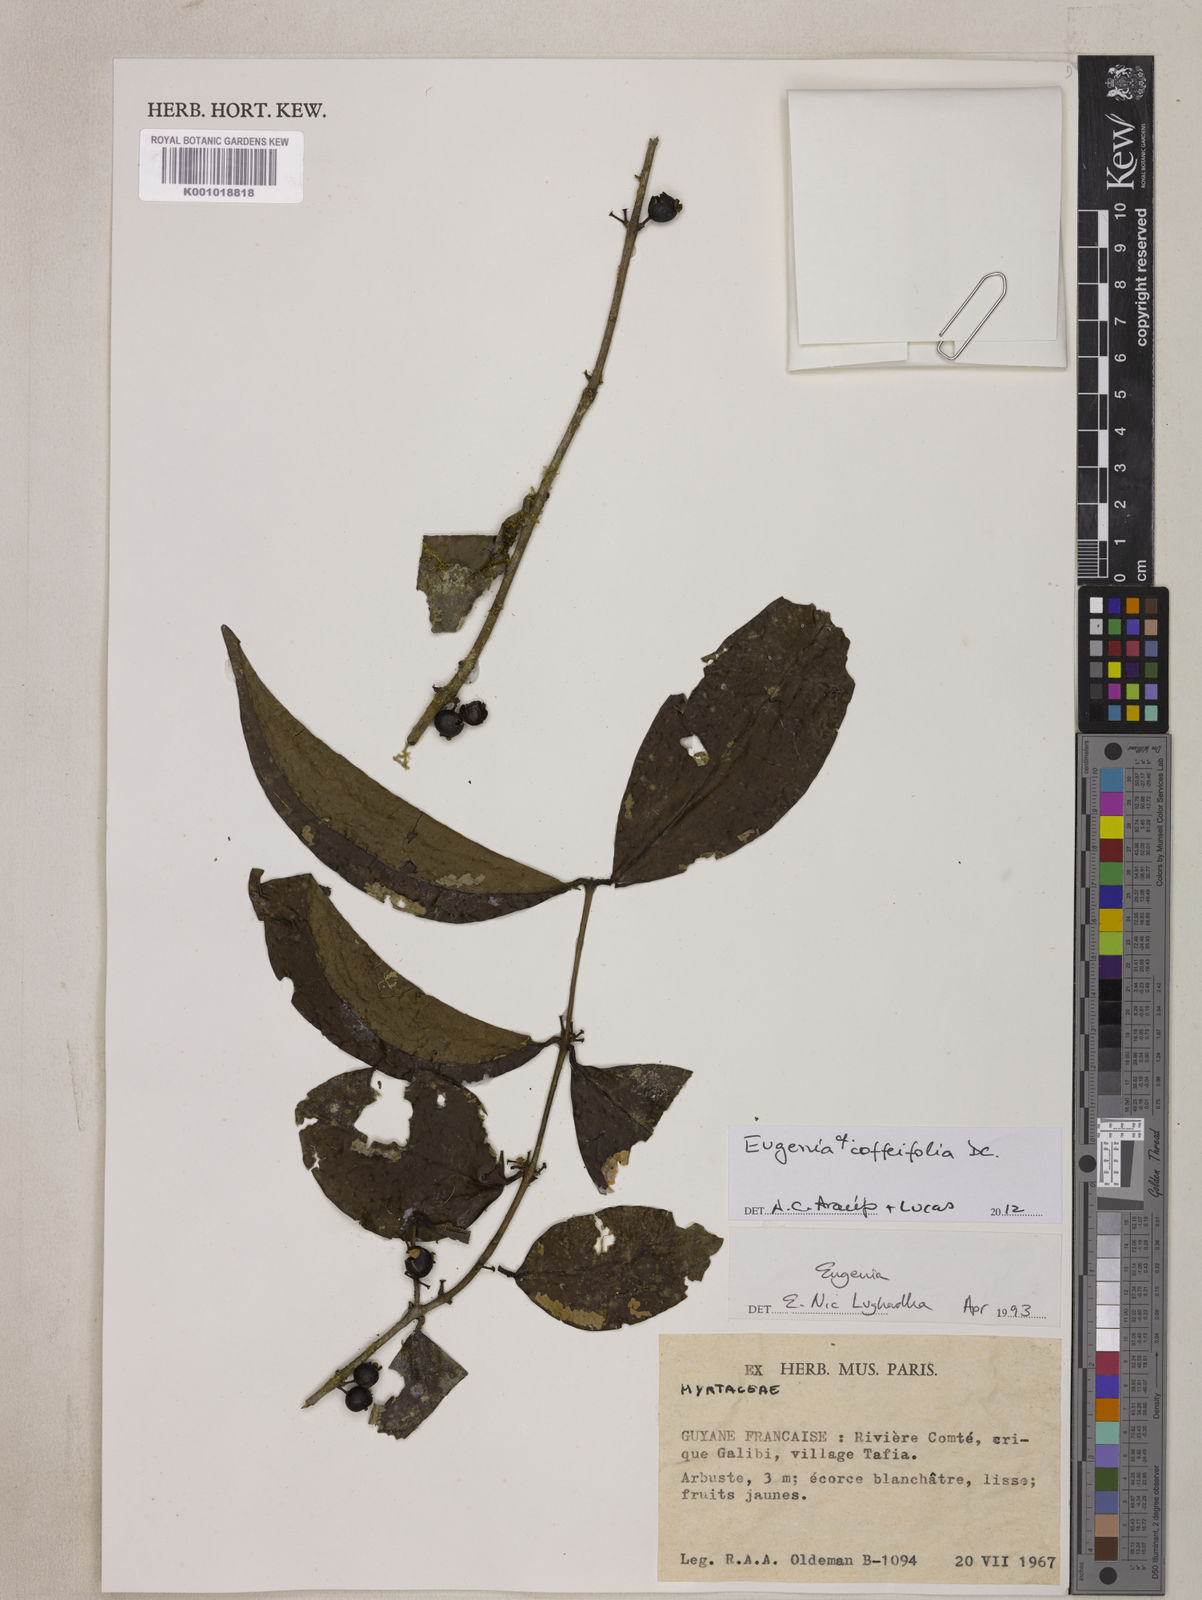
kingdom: Plantae
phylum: Tracheophyta
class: Magnoliopsida
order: Myrtales
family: Myrtaceae
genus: Eugenia
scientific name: Eugenia coffeifolia
